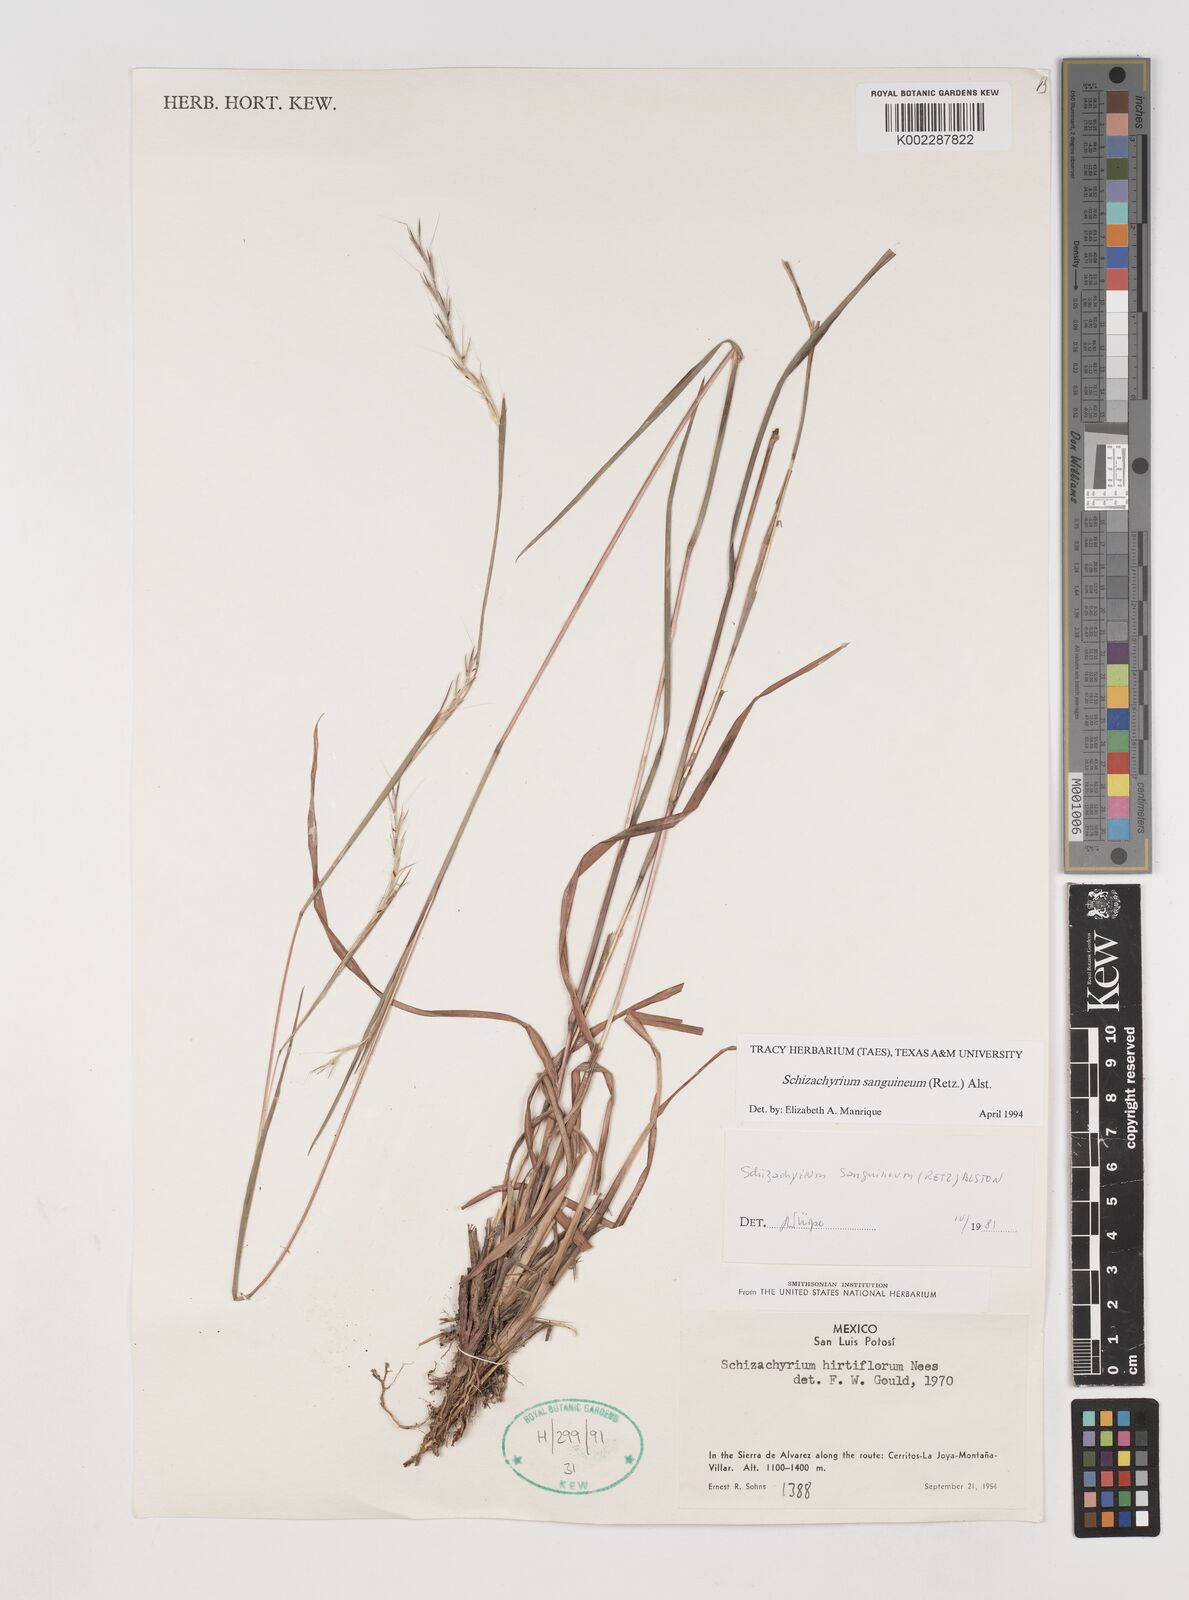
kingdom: Plantae
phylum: Tracheophyta
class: Liliopsida
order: Poales
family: Poaceae
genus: Schizachyrium
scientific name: Schizachyrium sanguineum
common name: Crimson bluestem
